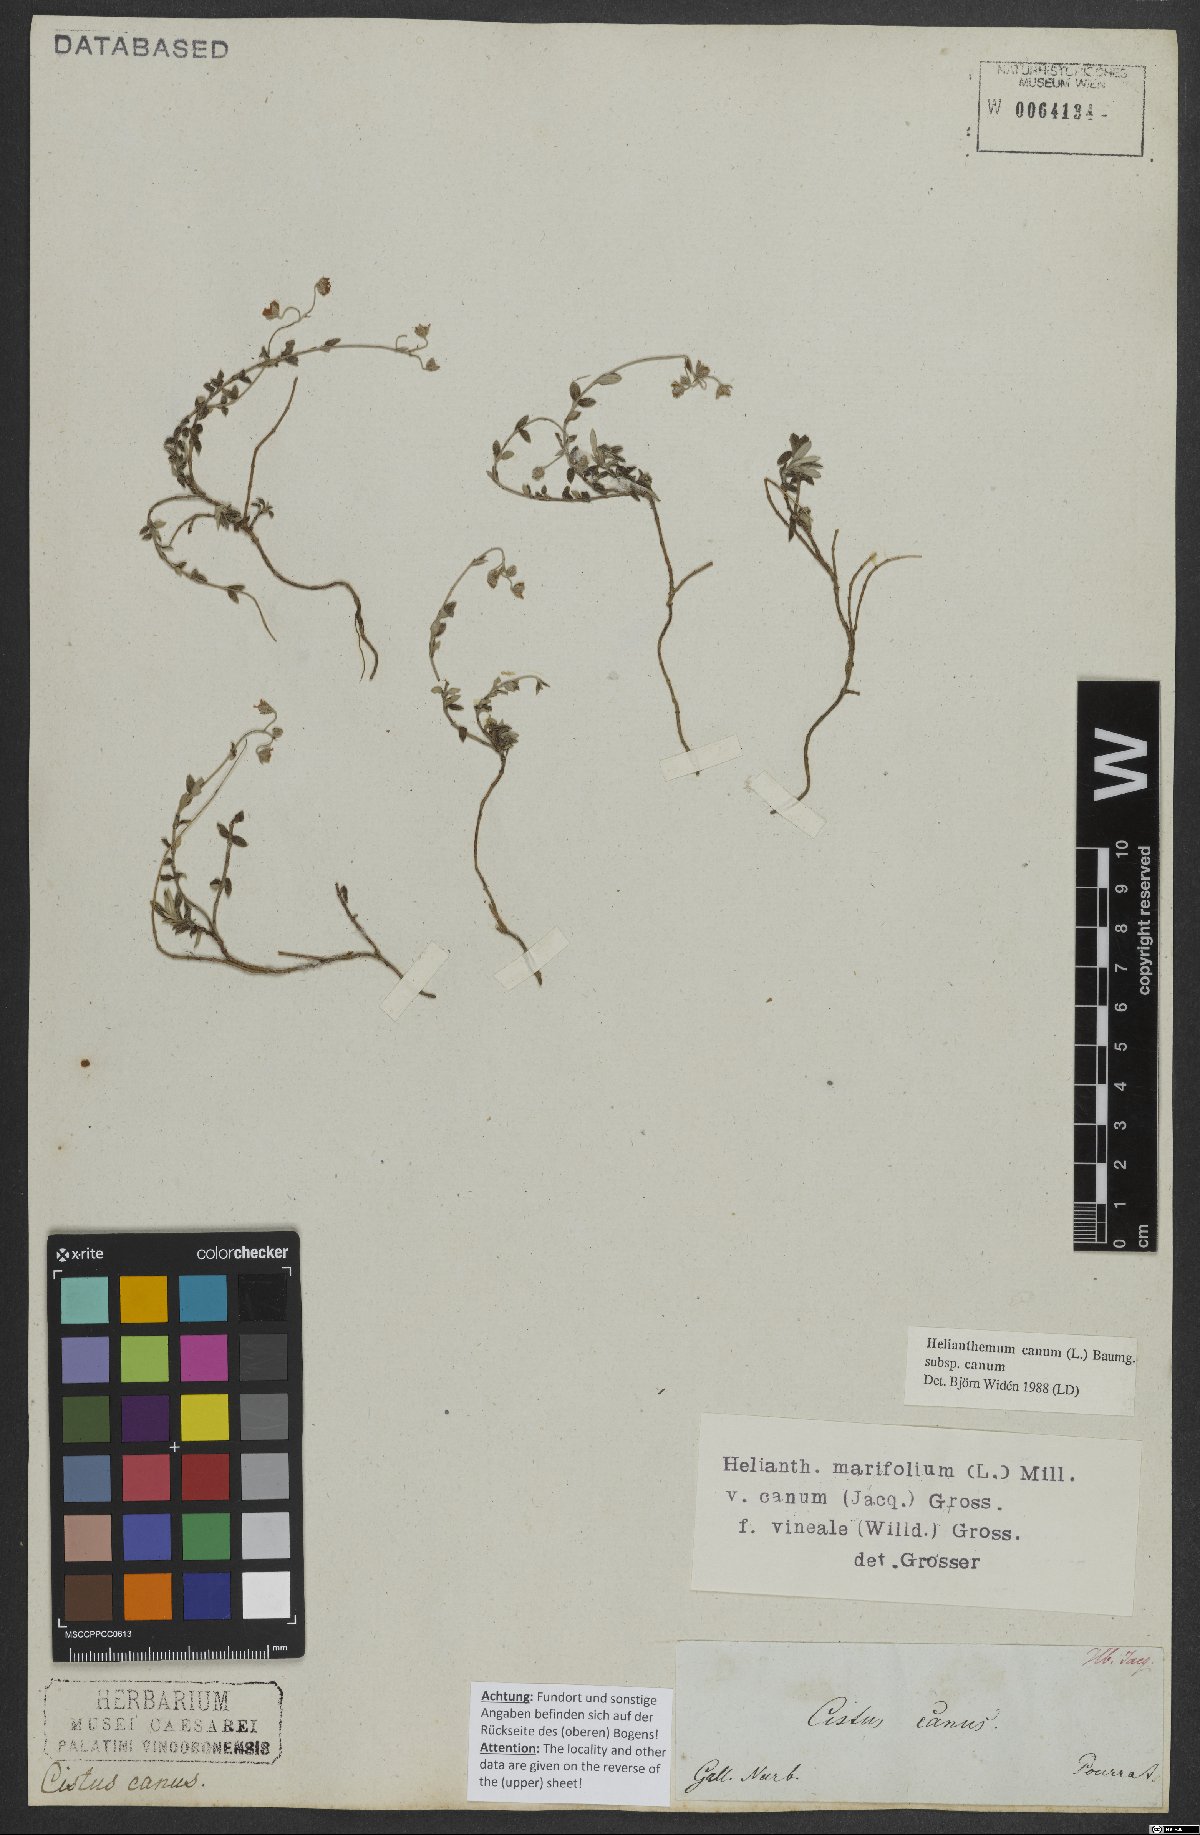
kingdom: Plantae
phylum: Tracheophyta
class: Magnoliopsida
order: Malvales
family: Cistaceae
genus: Helianthemum
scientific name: Helianthemum canum
